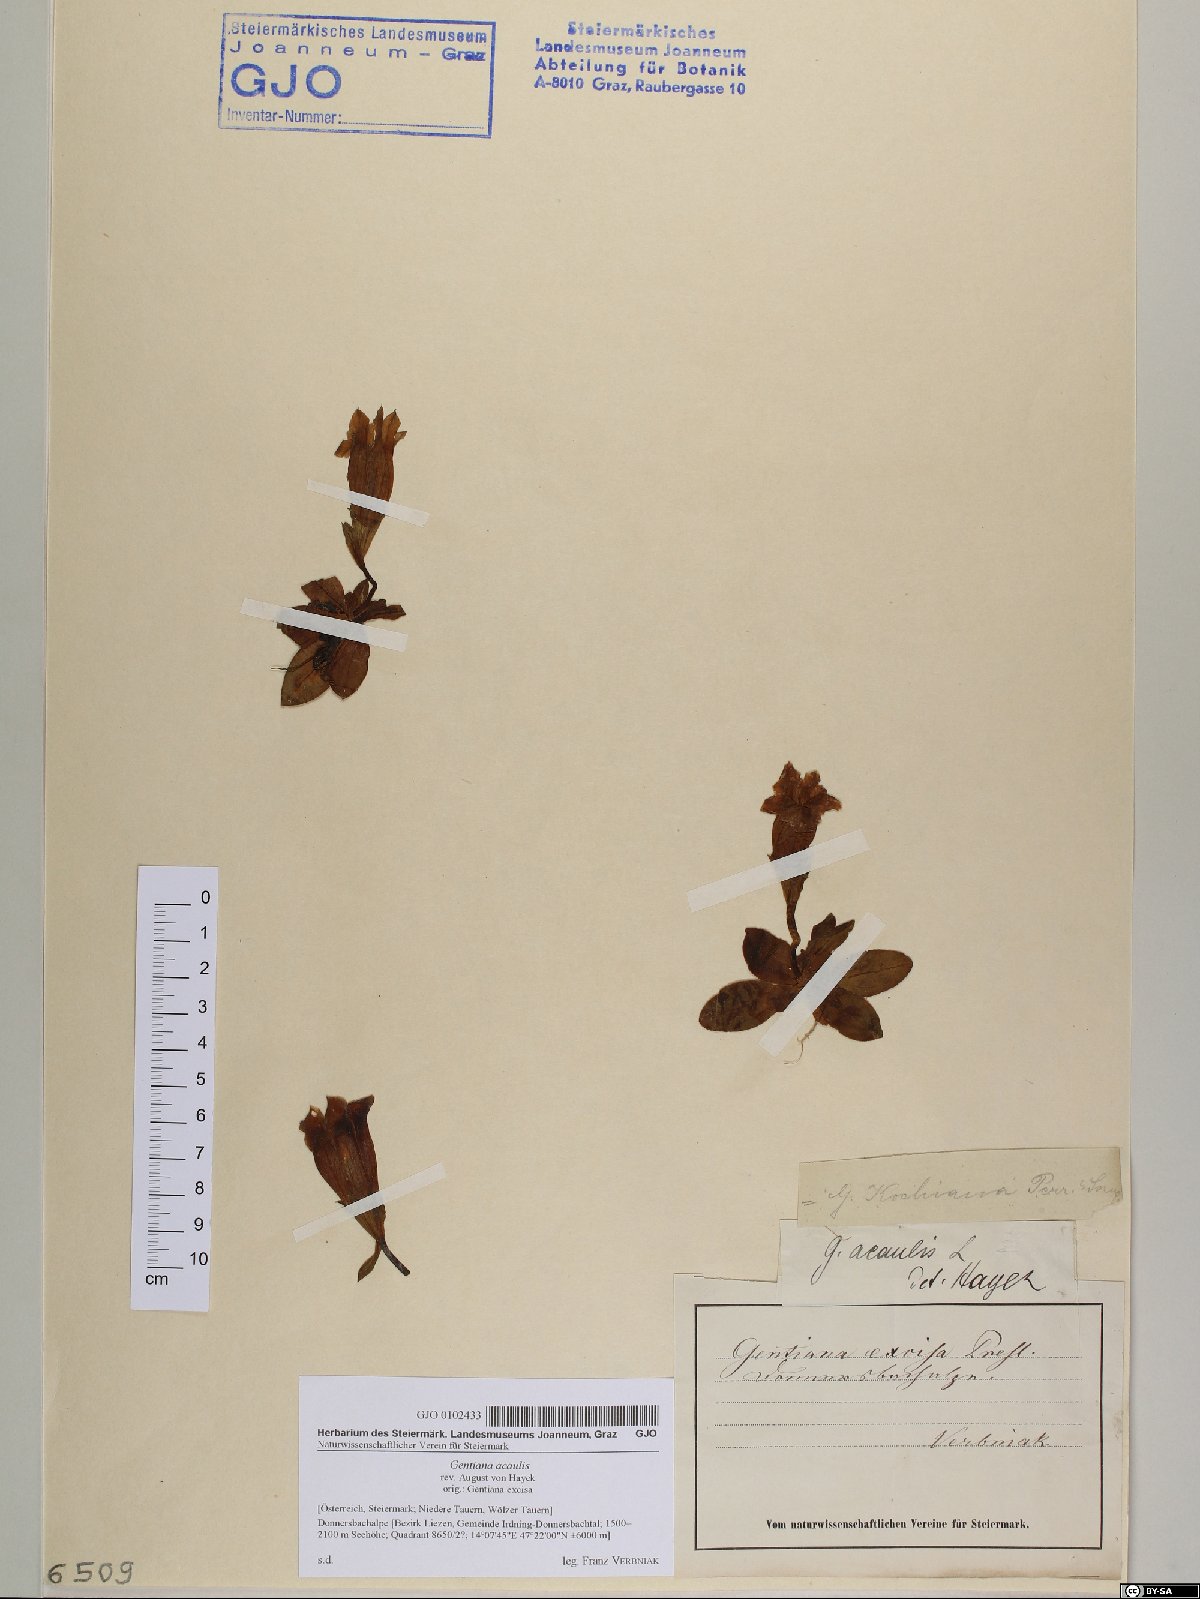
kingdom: Plantae
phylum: Tracheophyta
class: Magnoliopsida
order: Gentianales
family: Gentianaceae
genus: Gentiana
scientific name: Gentiana acaulis
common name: Trumpet gentian
